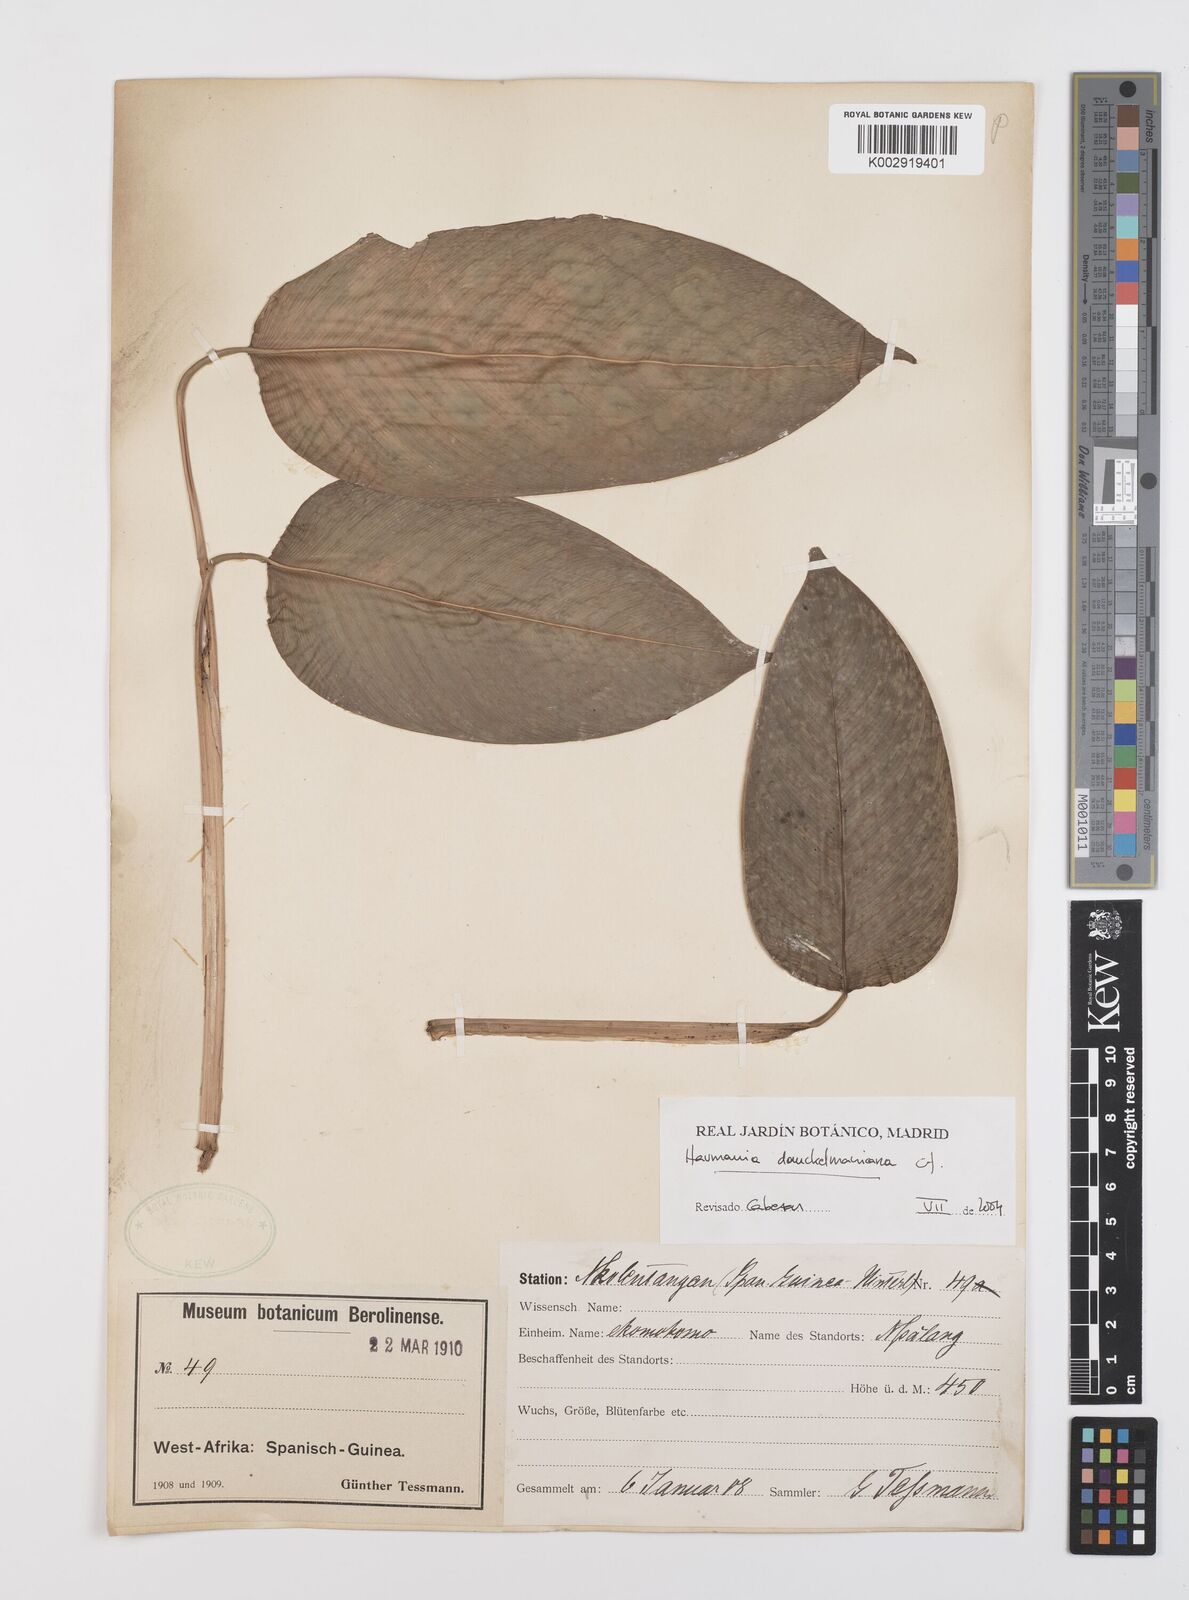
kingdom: Plantae
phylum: Tracheophyta
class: Liliopsida
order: Zingiberales
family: Marantaceae
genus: Haumania
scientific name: Haumania danckelmaniana
